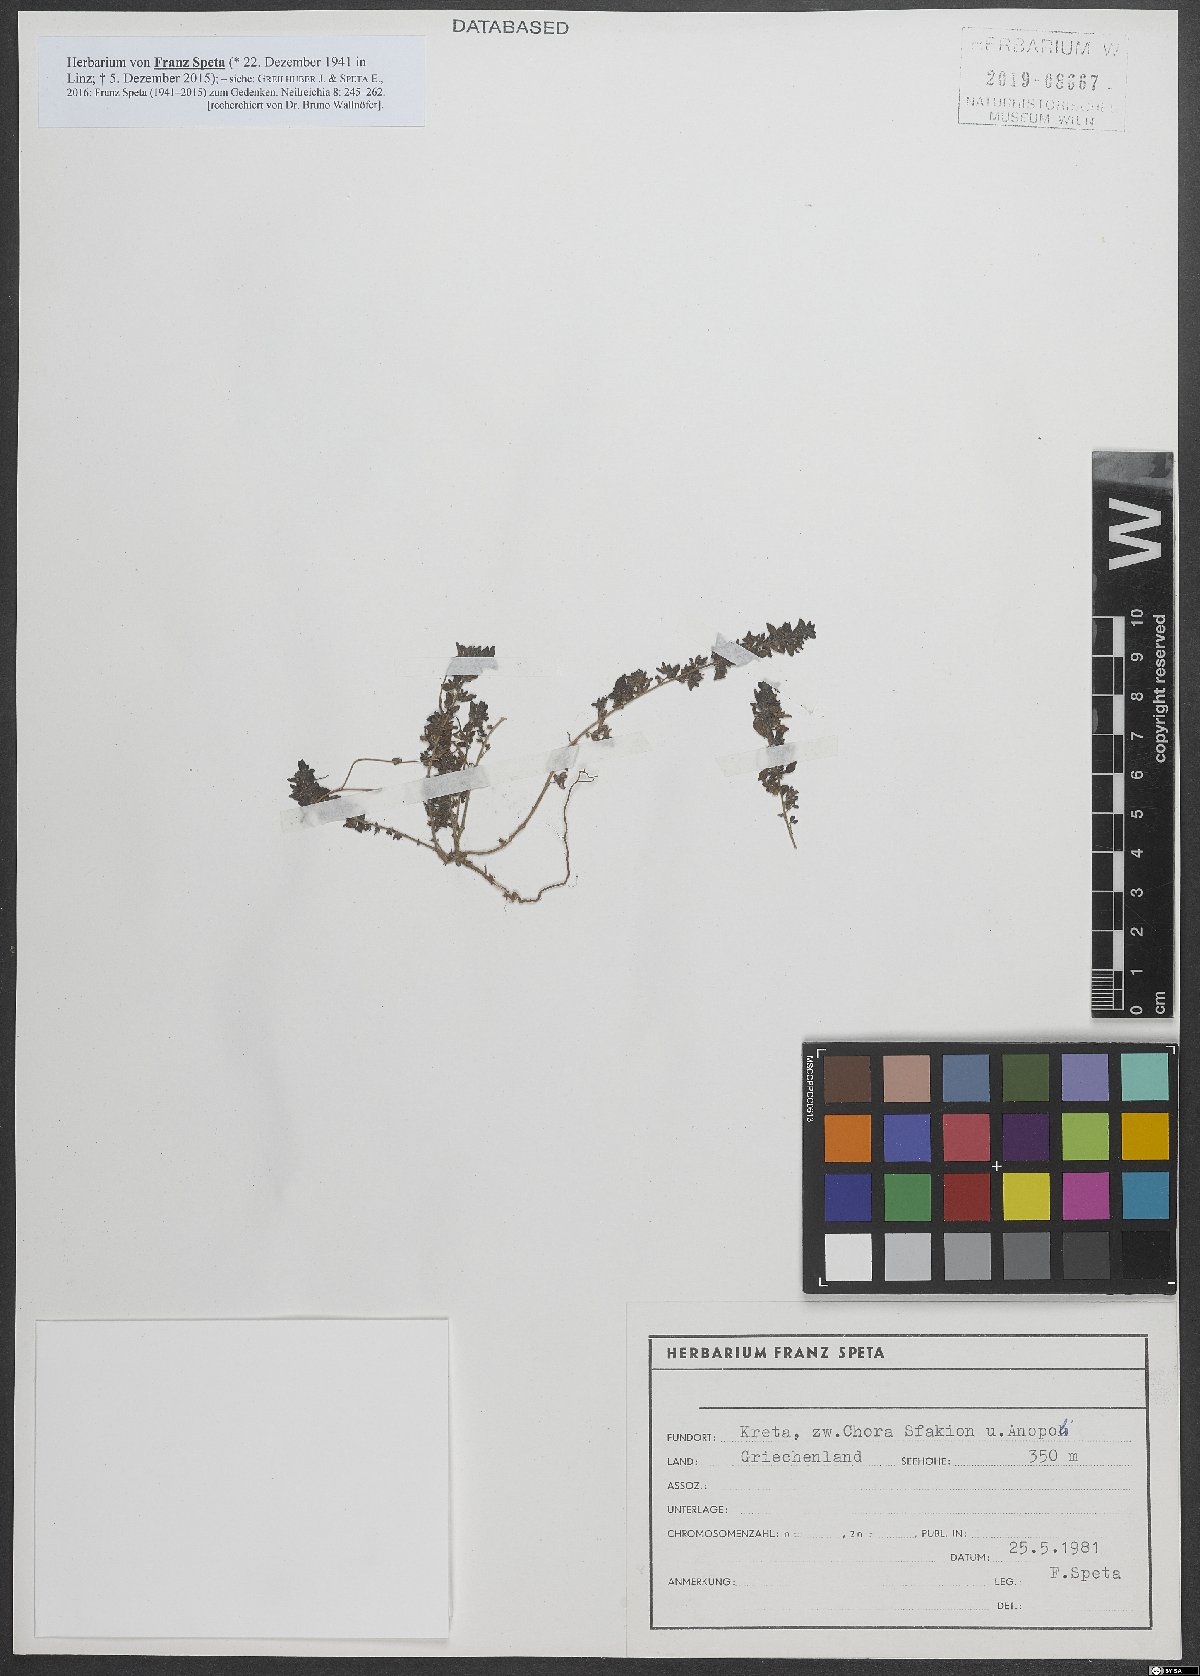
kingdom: Plantae
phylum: Tracheophyta
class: Magnoliopsida
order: Rosales
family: Urticaceae
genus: Parietaria
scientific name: Parietaria
